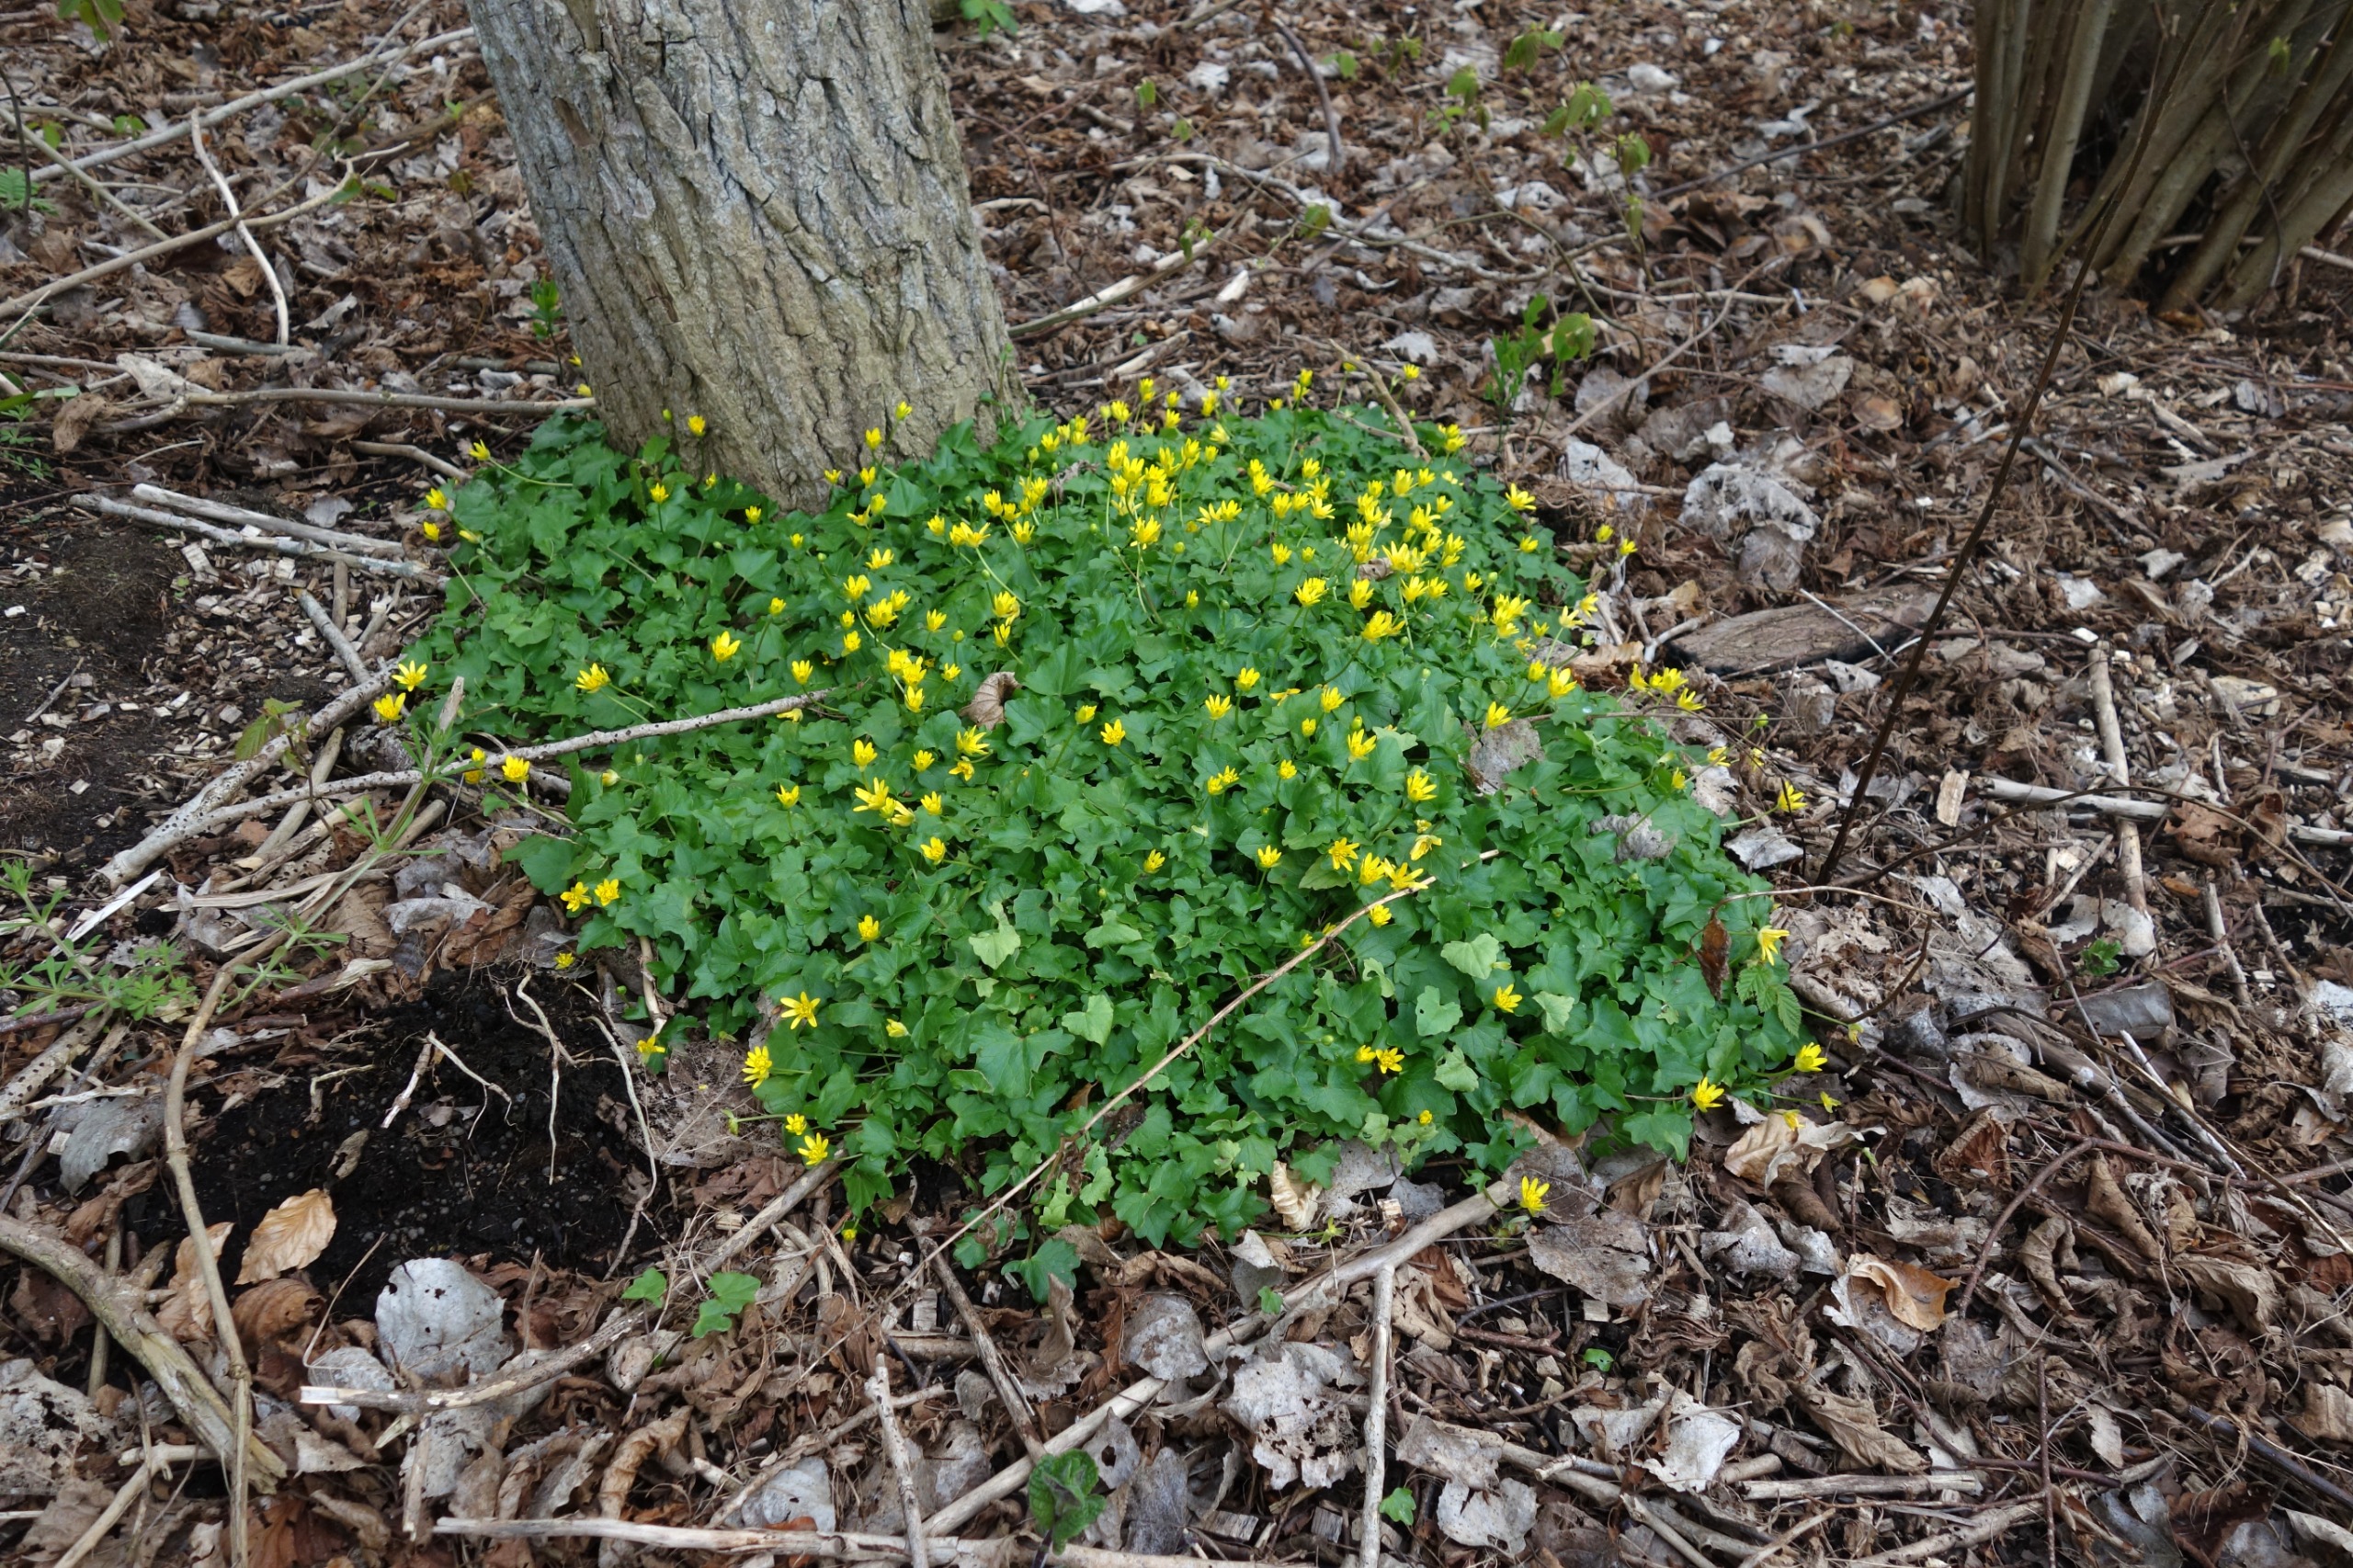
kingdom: Plantae
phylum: Tracheophyta
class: Magnoliopsida
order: Ranunculales
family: Ranunculaceae
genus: Ficaria
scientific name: Ficaria verna
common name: Vorterod
